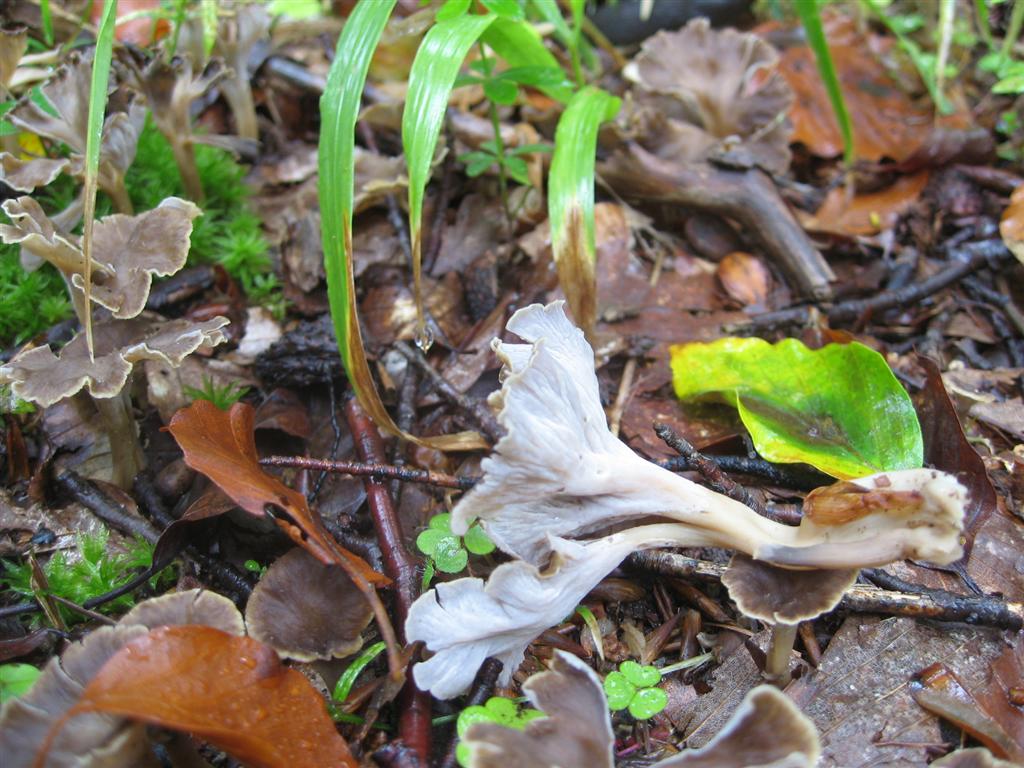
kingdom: Fungi
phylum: Basidiomycota
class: Agaricomycetes
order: Cantharellales
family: Hydnaceae
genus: Craterellus
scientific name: Craterellus undulatus
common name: liden kantarel
